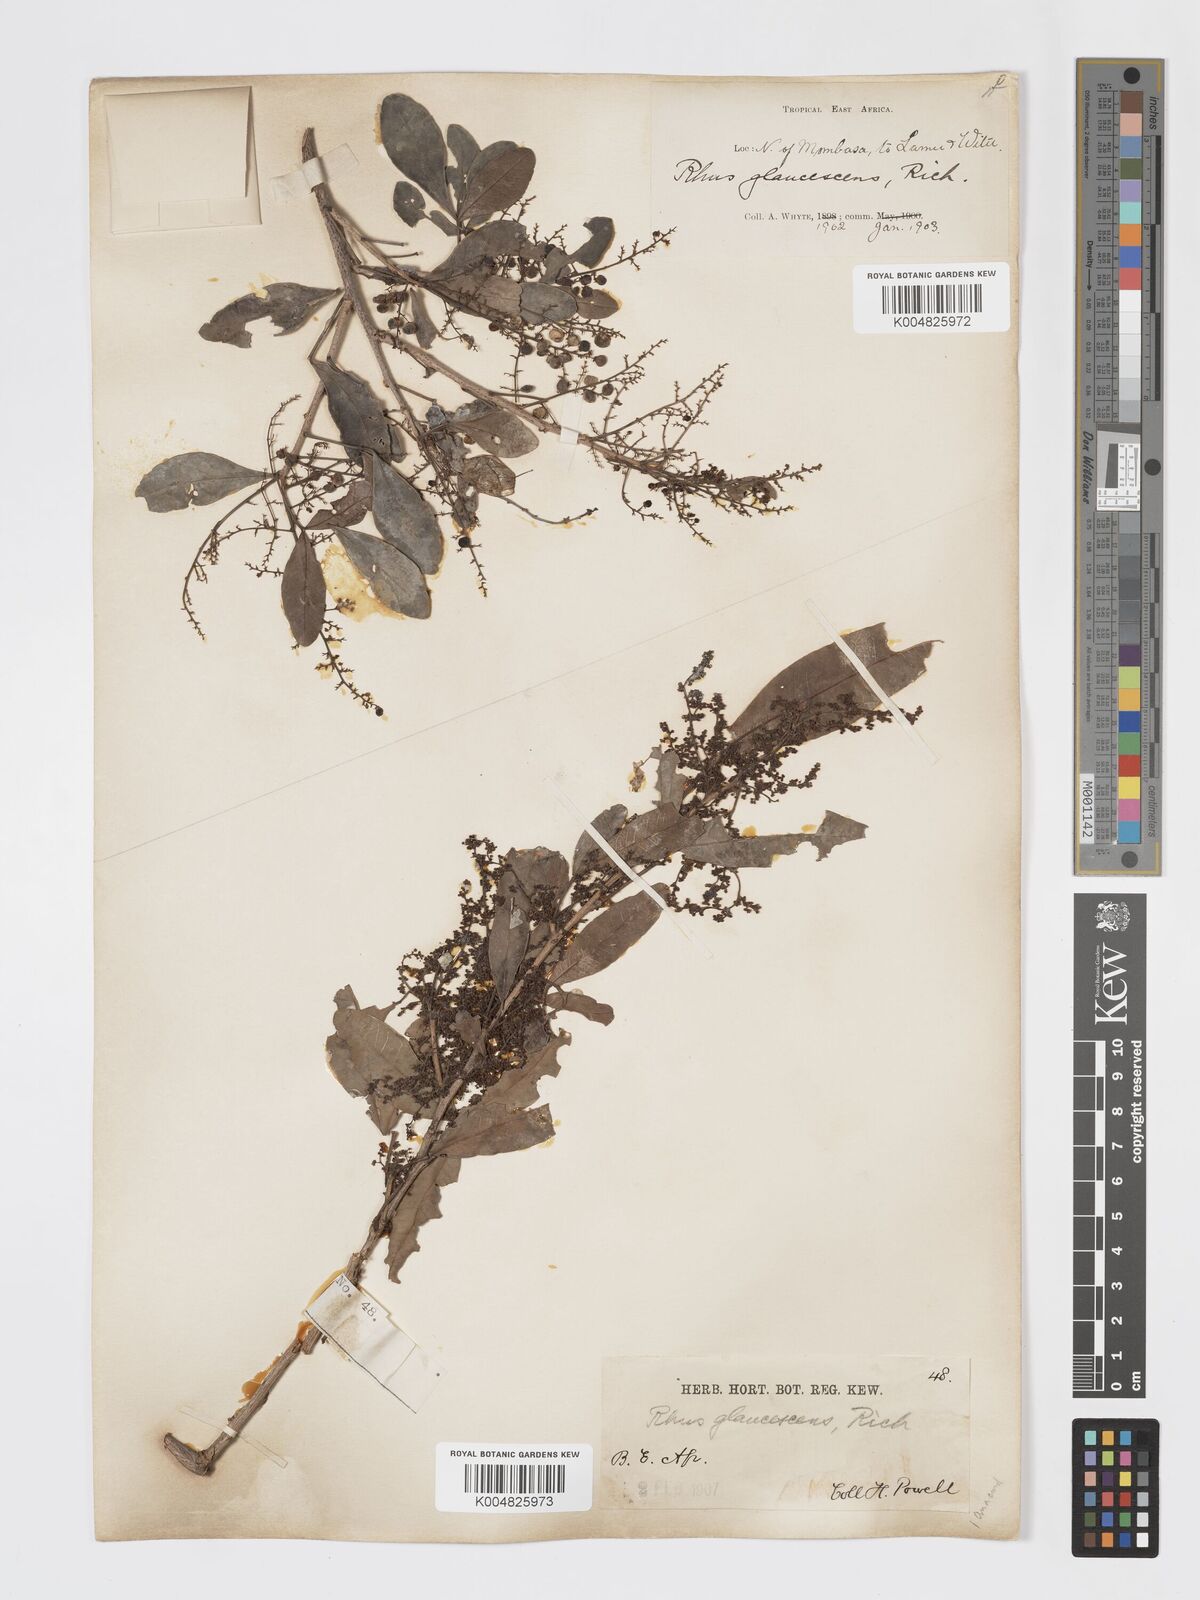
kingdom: Plantae
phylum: Tracheophyta
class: Magnoliopsida
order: Sapindales
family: Anacardiaceae
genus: Searsia
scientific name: Searsia natalensis
